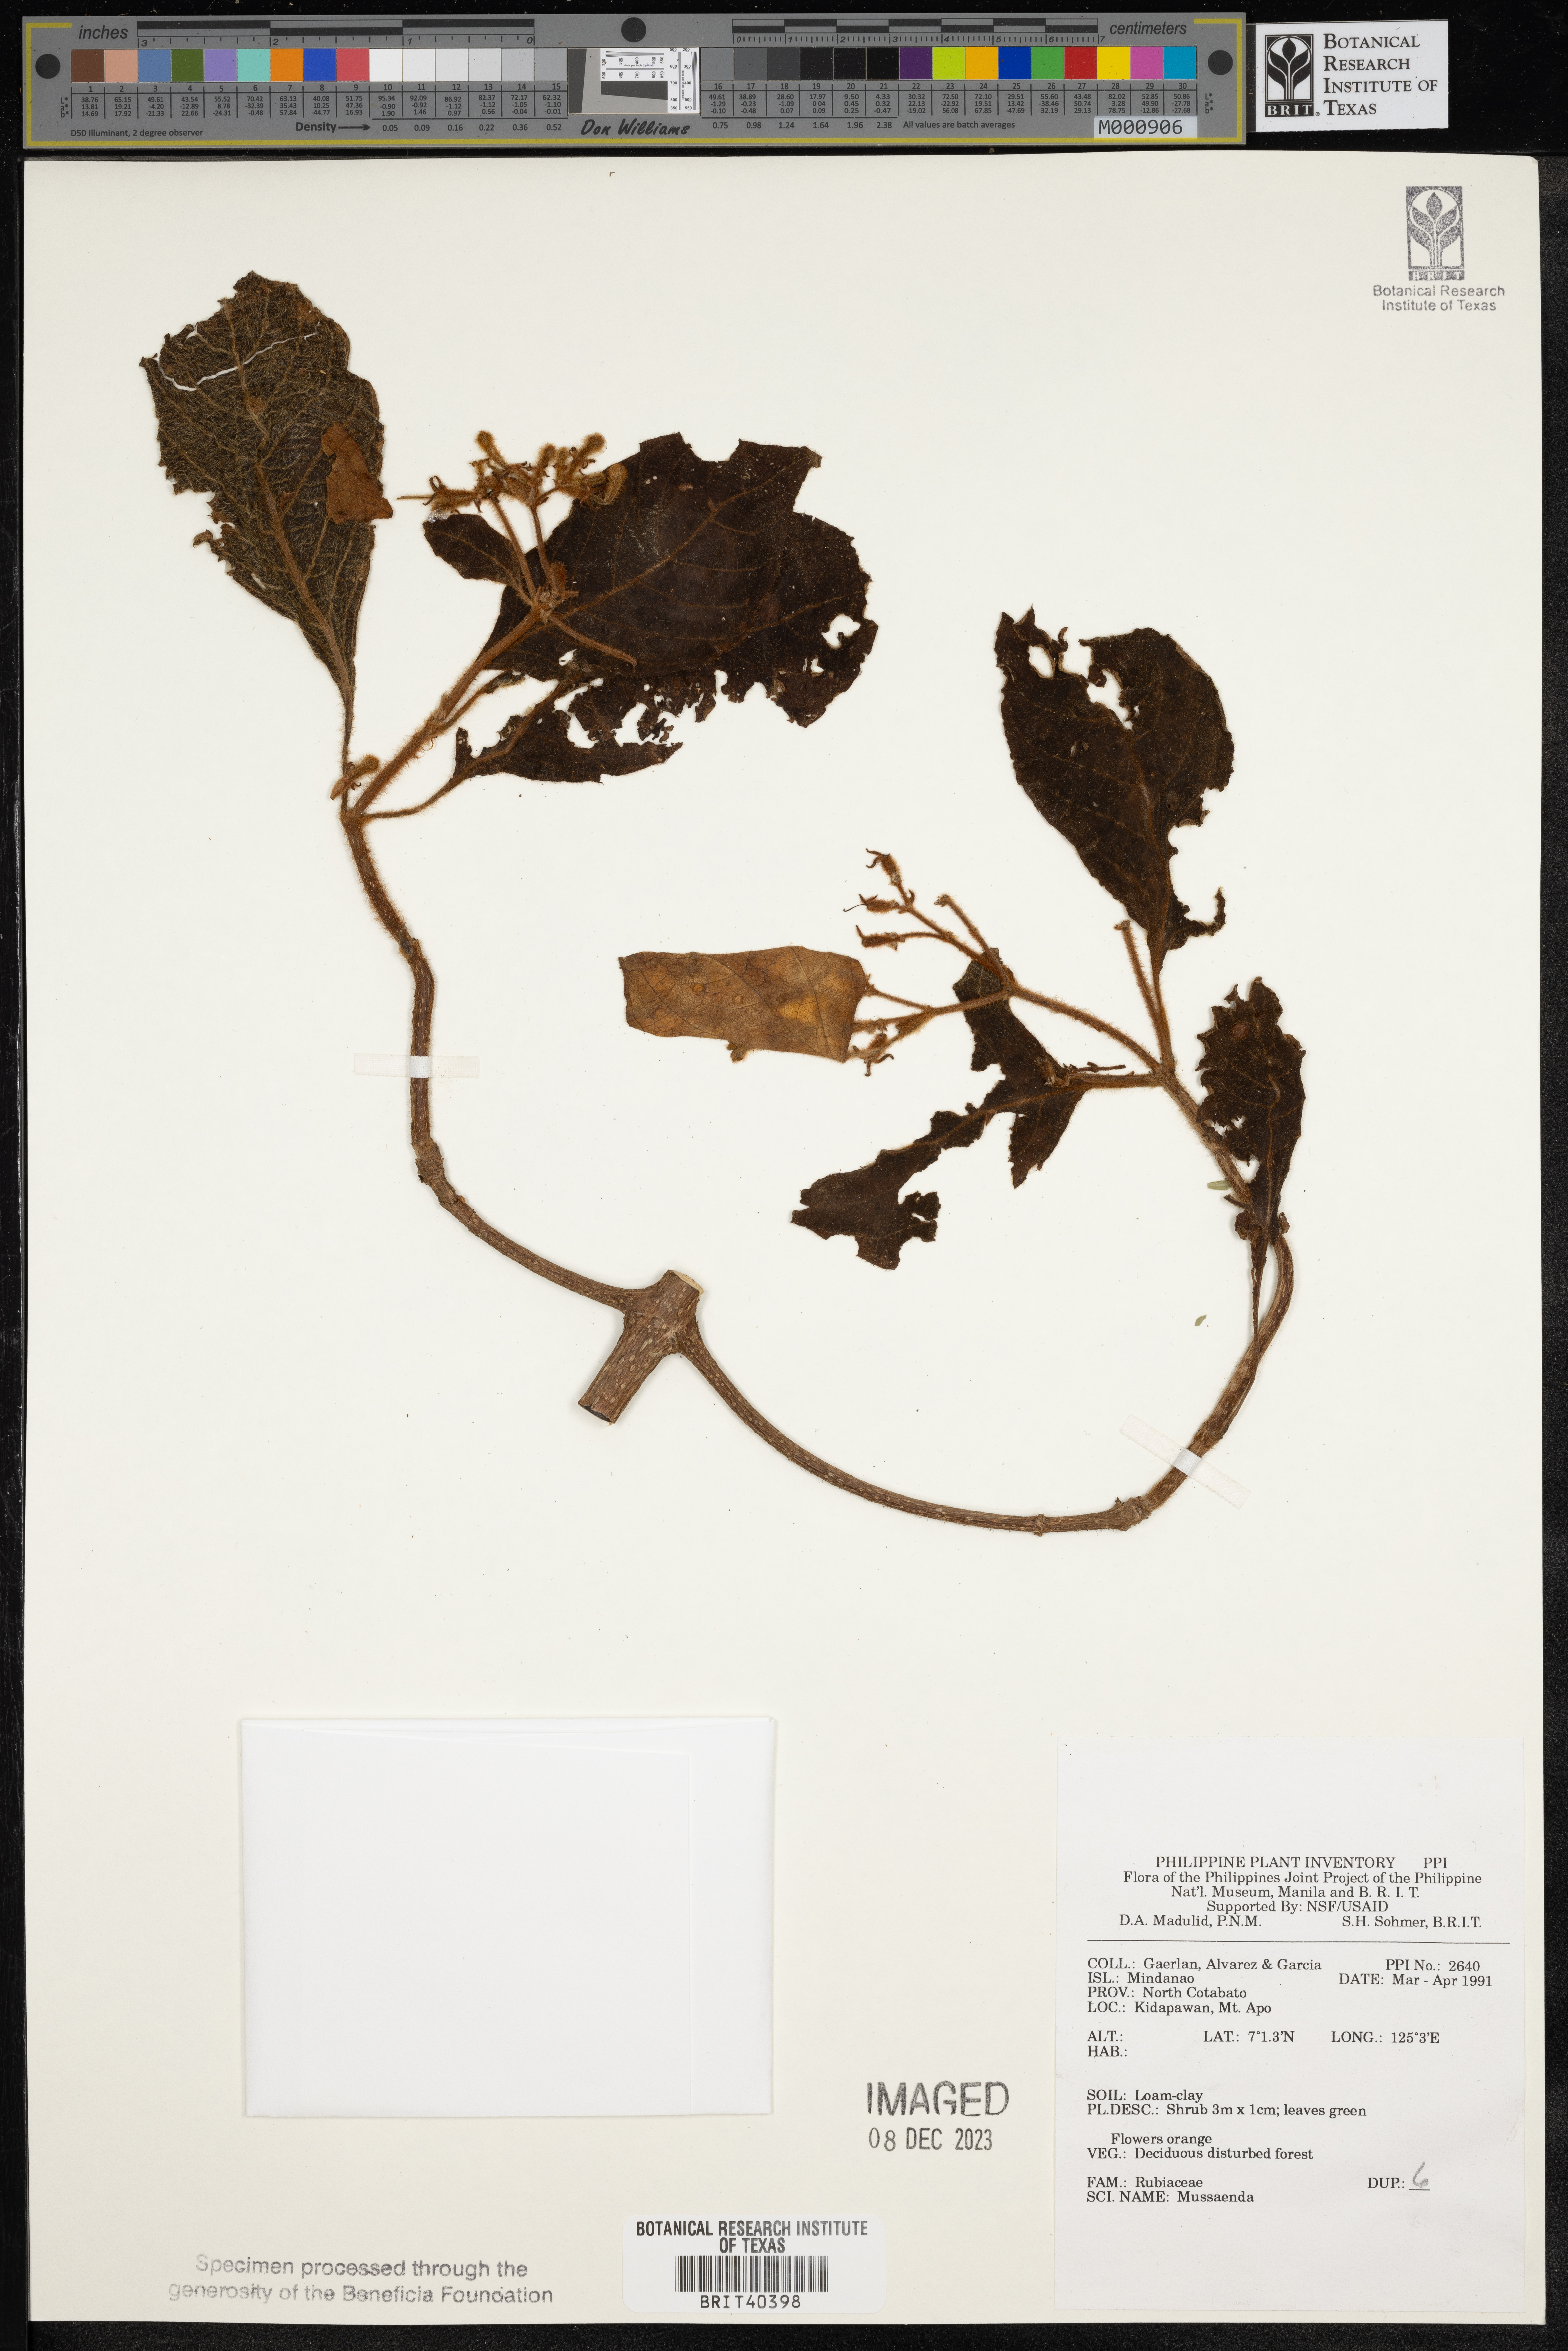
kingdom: Plantae
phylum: Tracheophyta
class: Magnoliopsida
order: Gentianales
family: Rubiaceae
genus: Mussaenda
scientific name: Mussaenda
